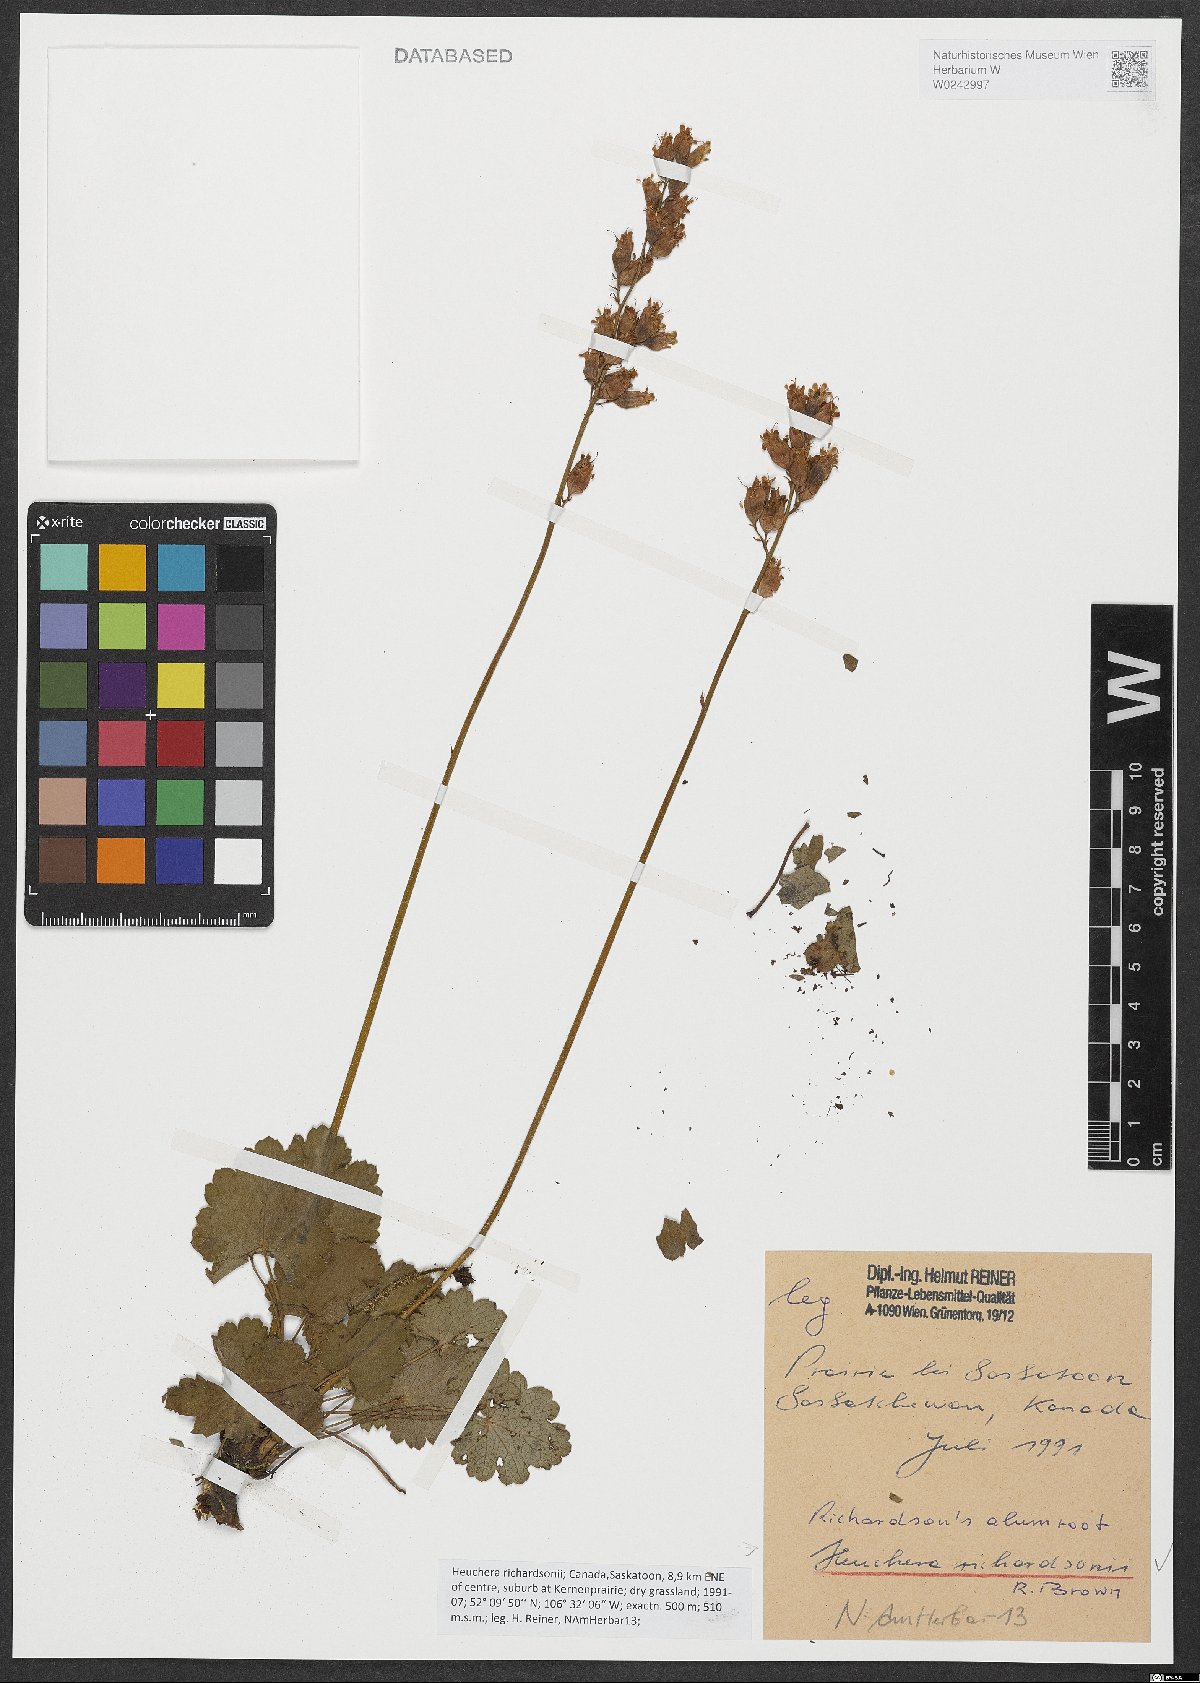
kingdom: Plantae
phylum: Tracheophyta
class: Magnoliopsida
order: Saxifragales
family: Saxifragaceae
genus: Heuchera
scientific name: Heuchera richardsonii
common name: Richardson's alumroot
